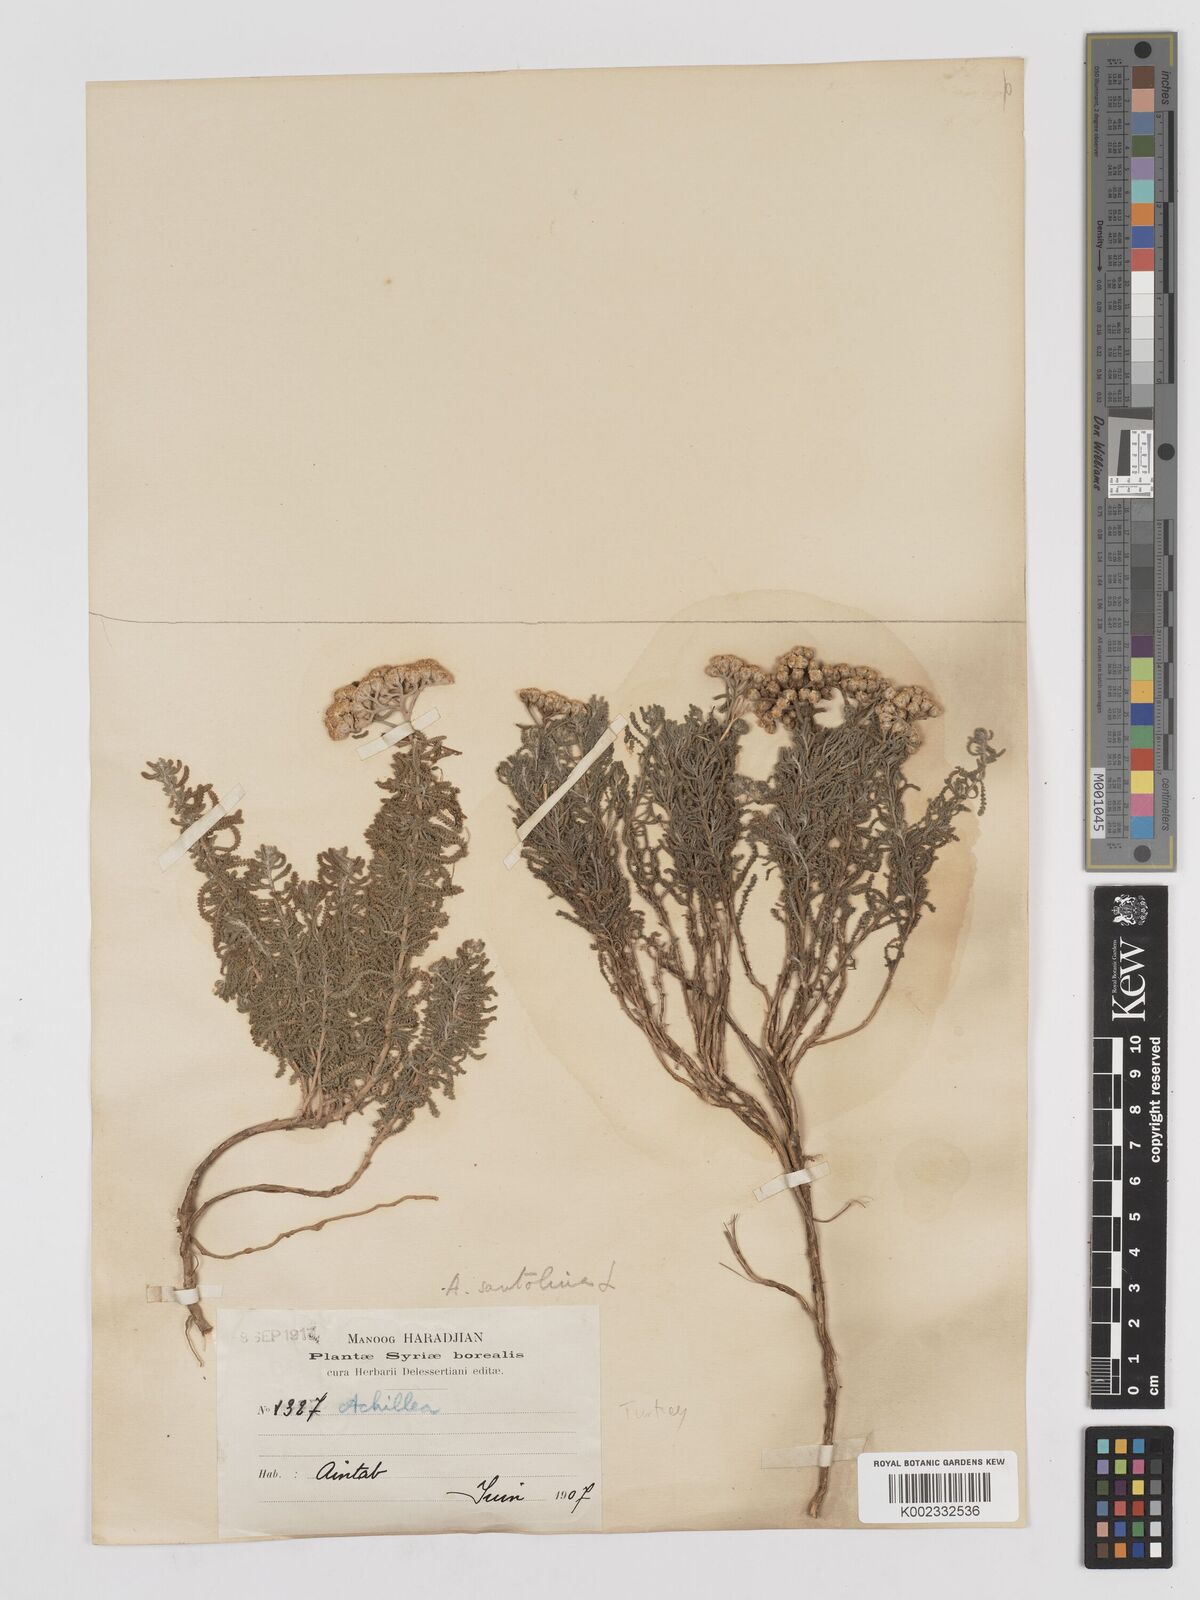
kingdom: Plantae
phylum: Tracheophyta
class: Magnoliopsida
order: Asterales
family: Asteraceae
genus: Achillea
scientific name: Achillea tenuifolia
